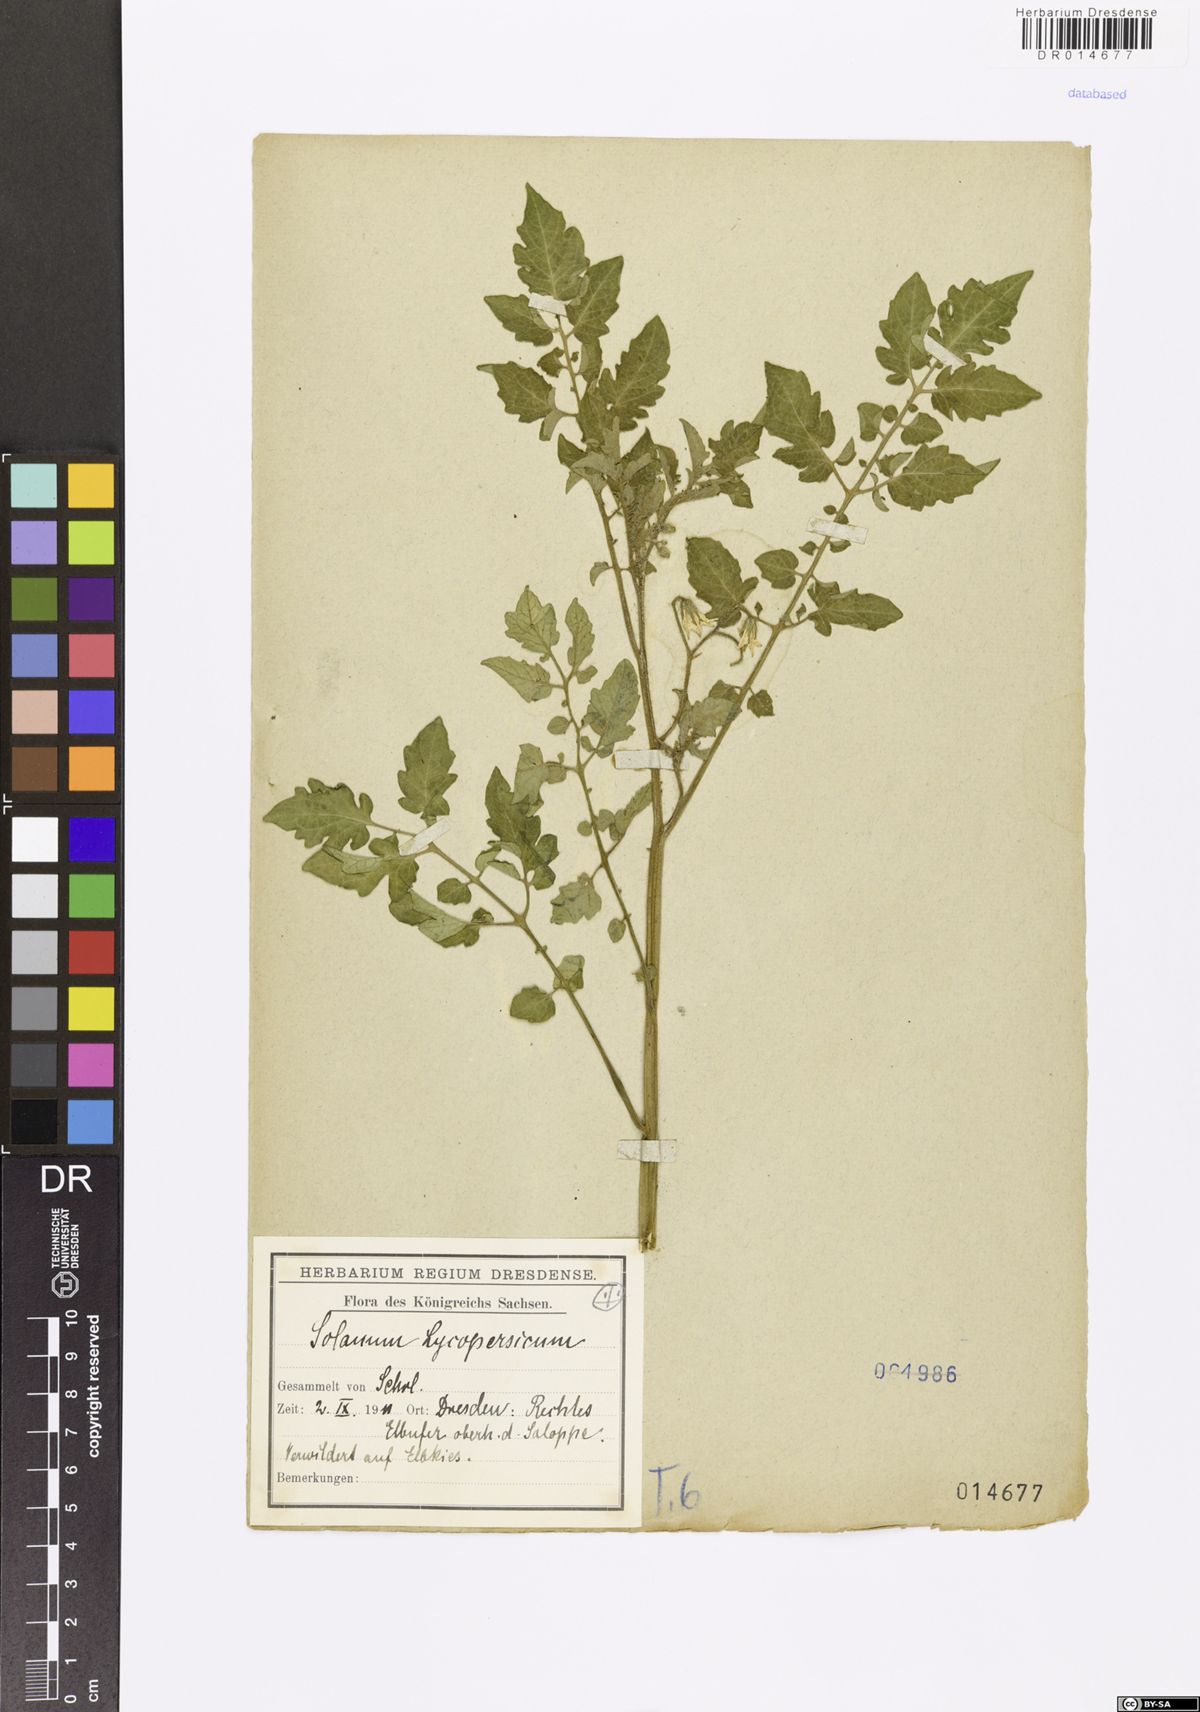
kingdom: Plantae
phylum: Tracheophyta
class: Magnoliopsida
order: Solanales
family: Solanaceae
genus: Solanum
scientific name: Solanum
